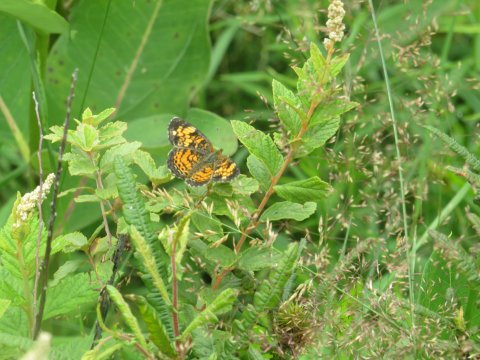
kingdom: Animalia
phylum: Arthropoda
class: Insecta
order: Lepidoptera
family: Nymphalidae
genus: Phyciodes
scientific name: Phyciodes tharos
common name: Pearl Crescent
